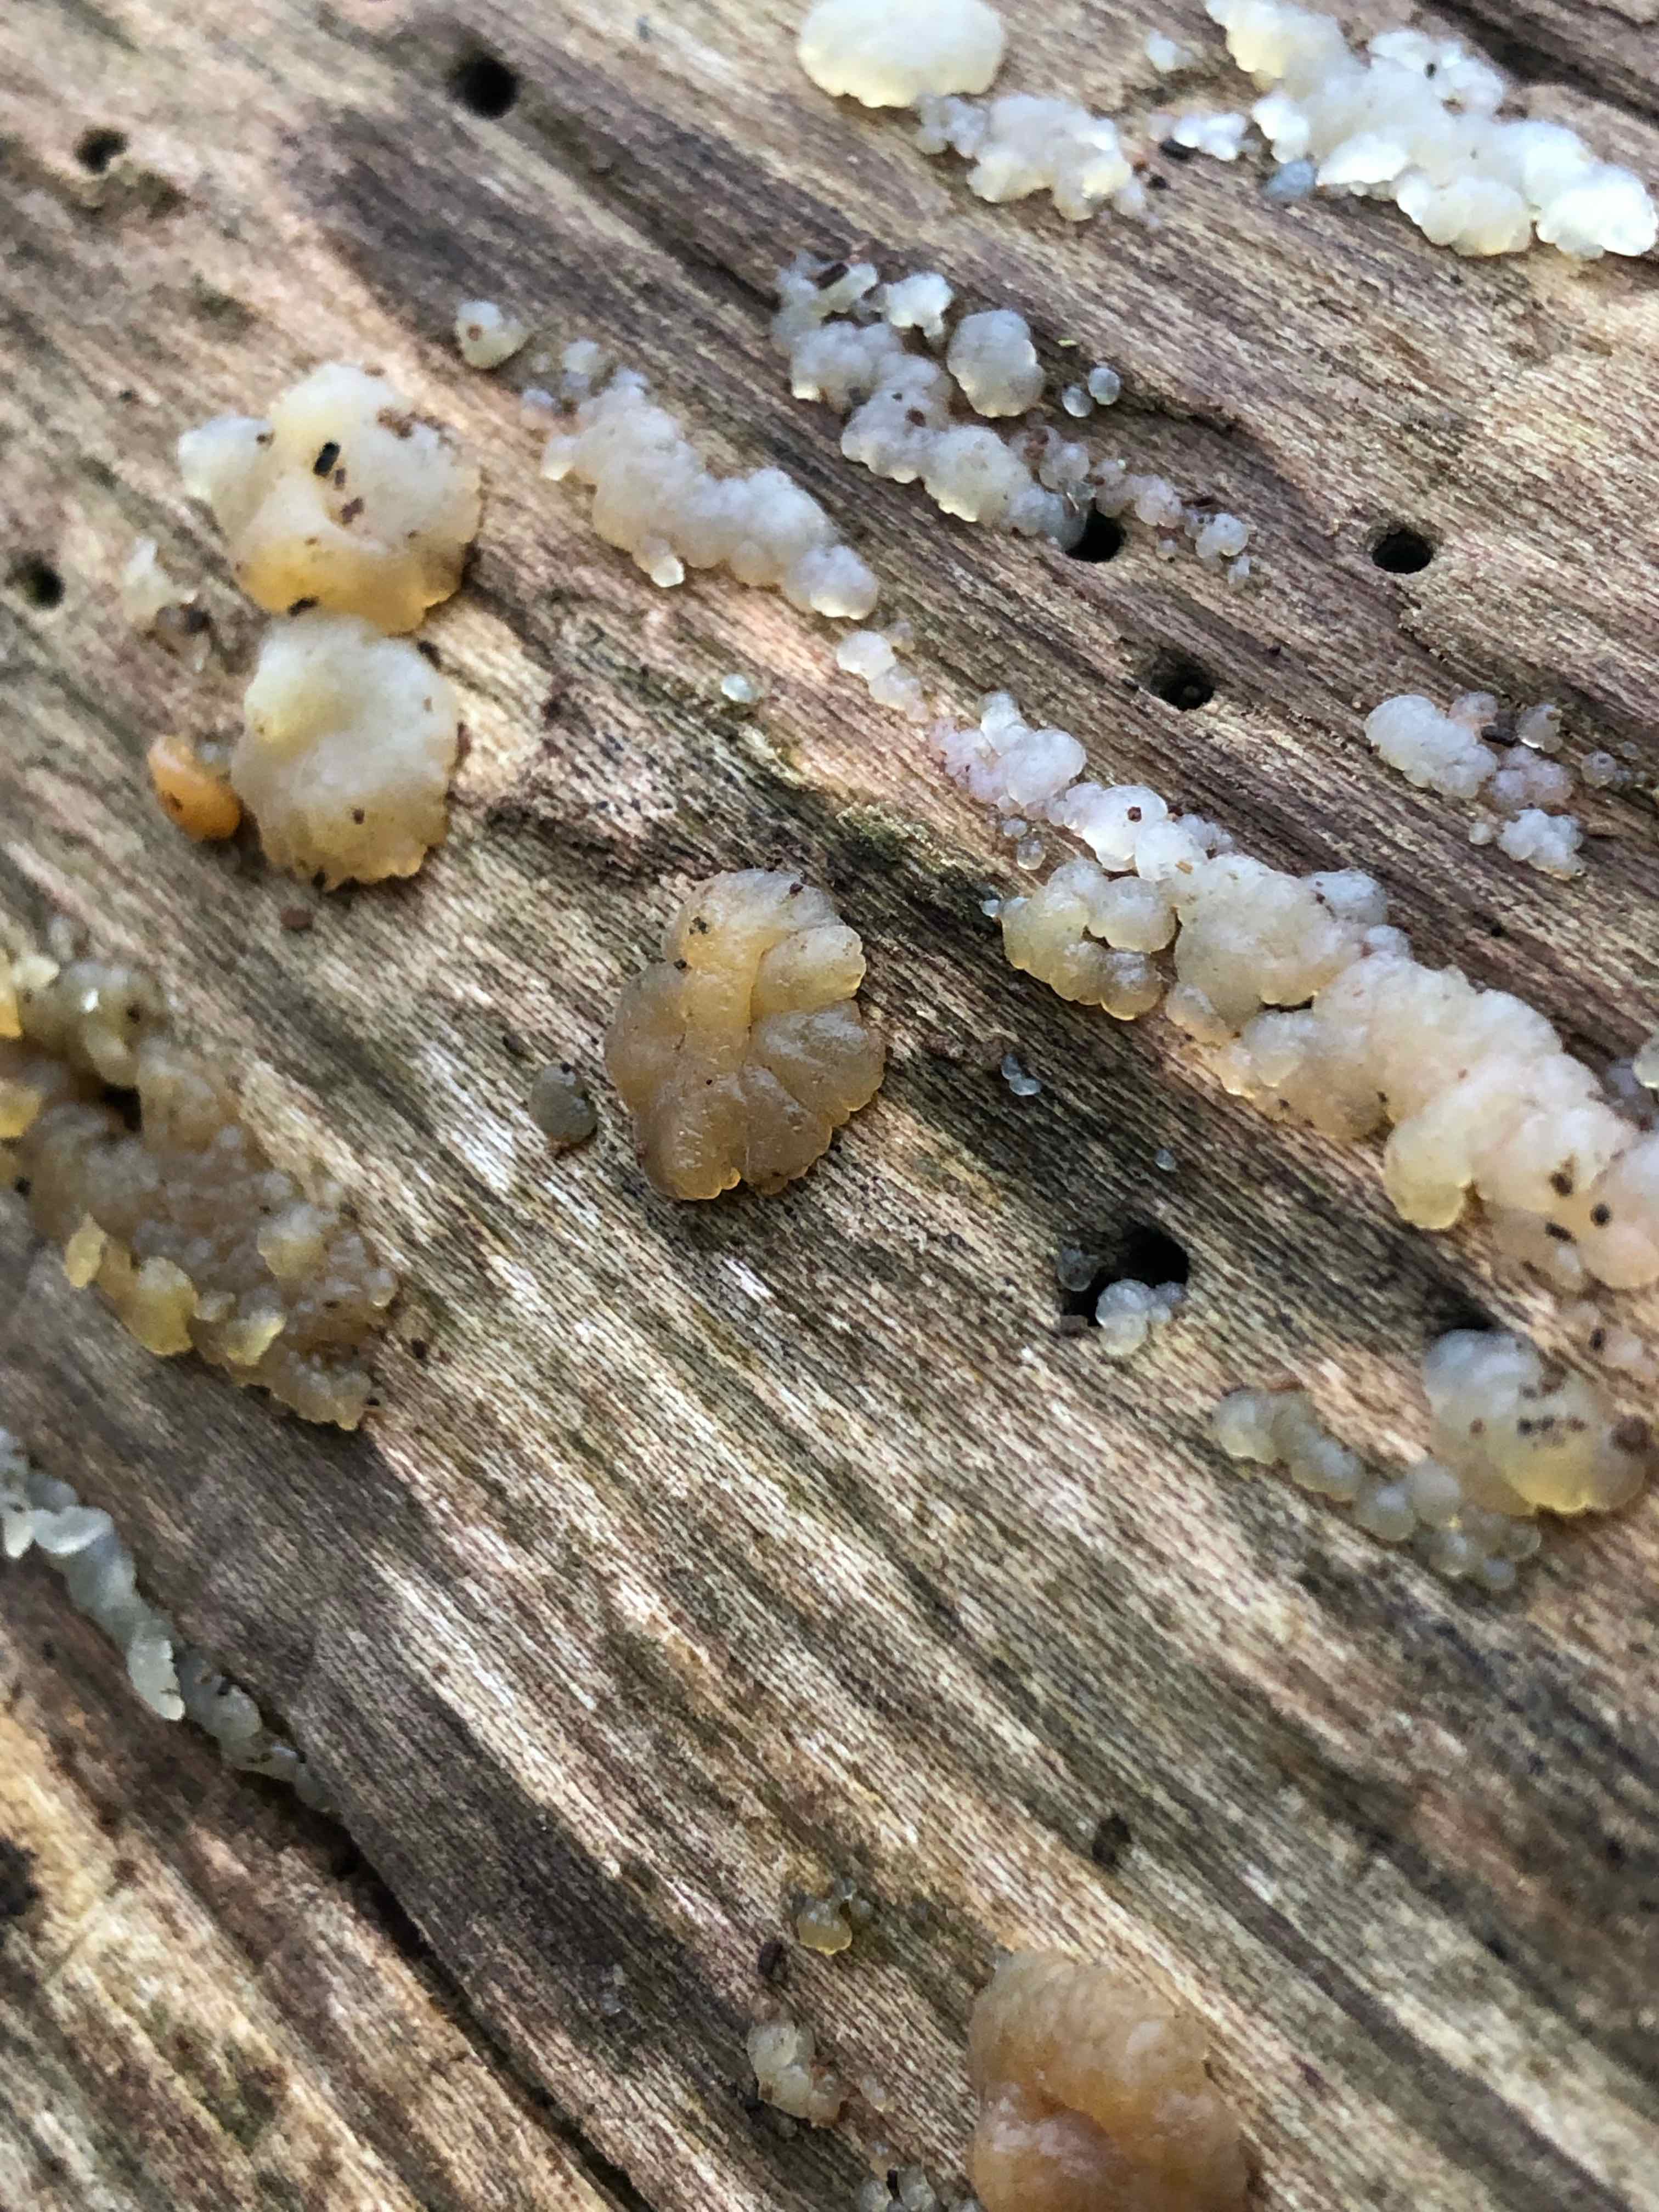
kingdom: Fungi
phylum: Basidiomycota
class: Agaricomycetes
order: Auriculariales
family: Hyaloriaceae
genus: Myxarium
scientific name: Myxarium nucleatum
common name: klar bævretop
